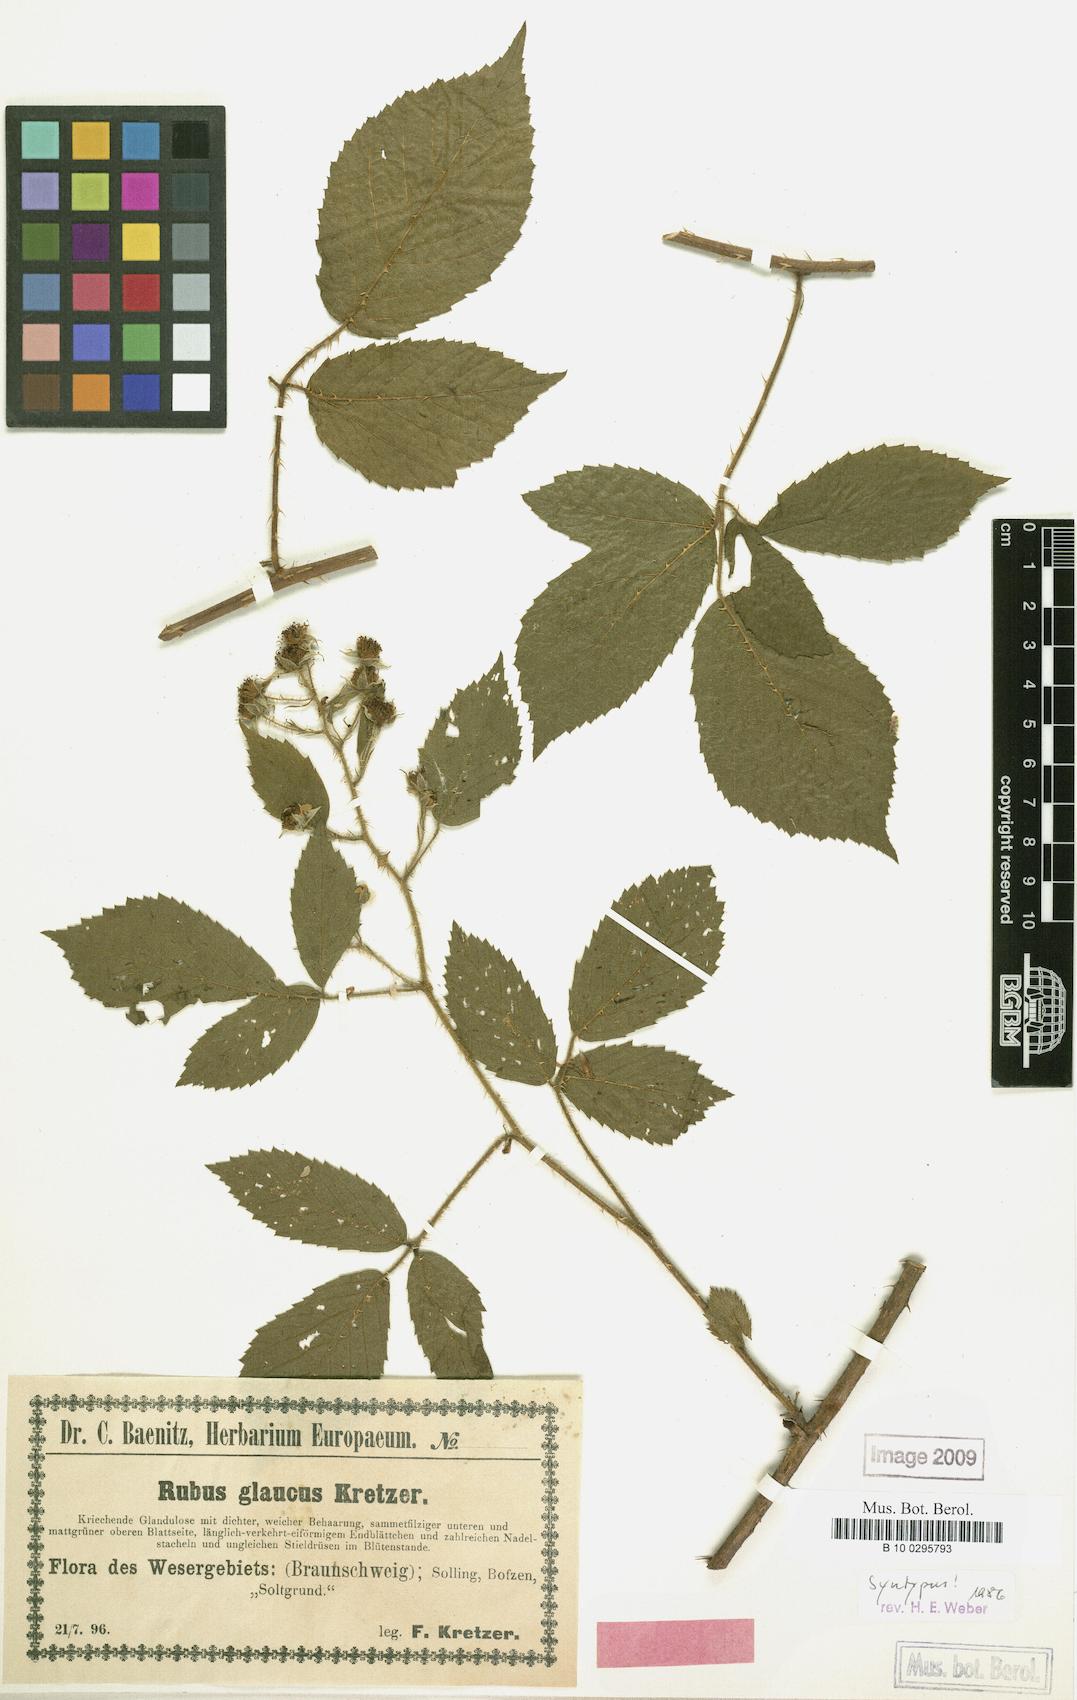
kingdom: Plantae
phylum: Tracheophyta
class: Magnoliopsida
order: Rosales
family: Rosaceae
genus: Rubus
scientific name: Rubus glaucus
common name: Andean blackberry
